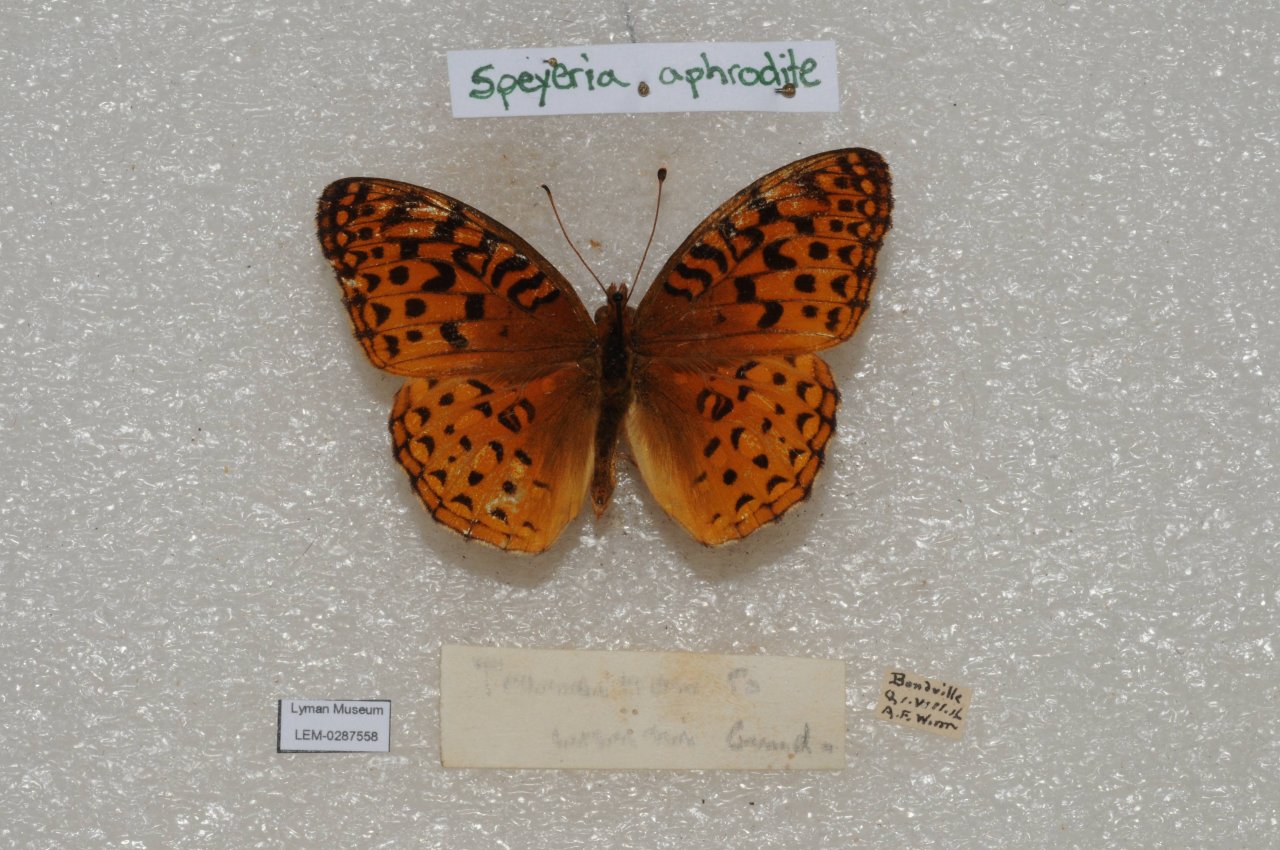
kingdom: Animalia
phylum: Arthropoda
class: Insecta
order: Lepidoptera
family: Nymphalidae
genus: Speyeria
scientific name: Speyeria aphrodite
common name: Aphrodite Fritillary
